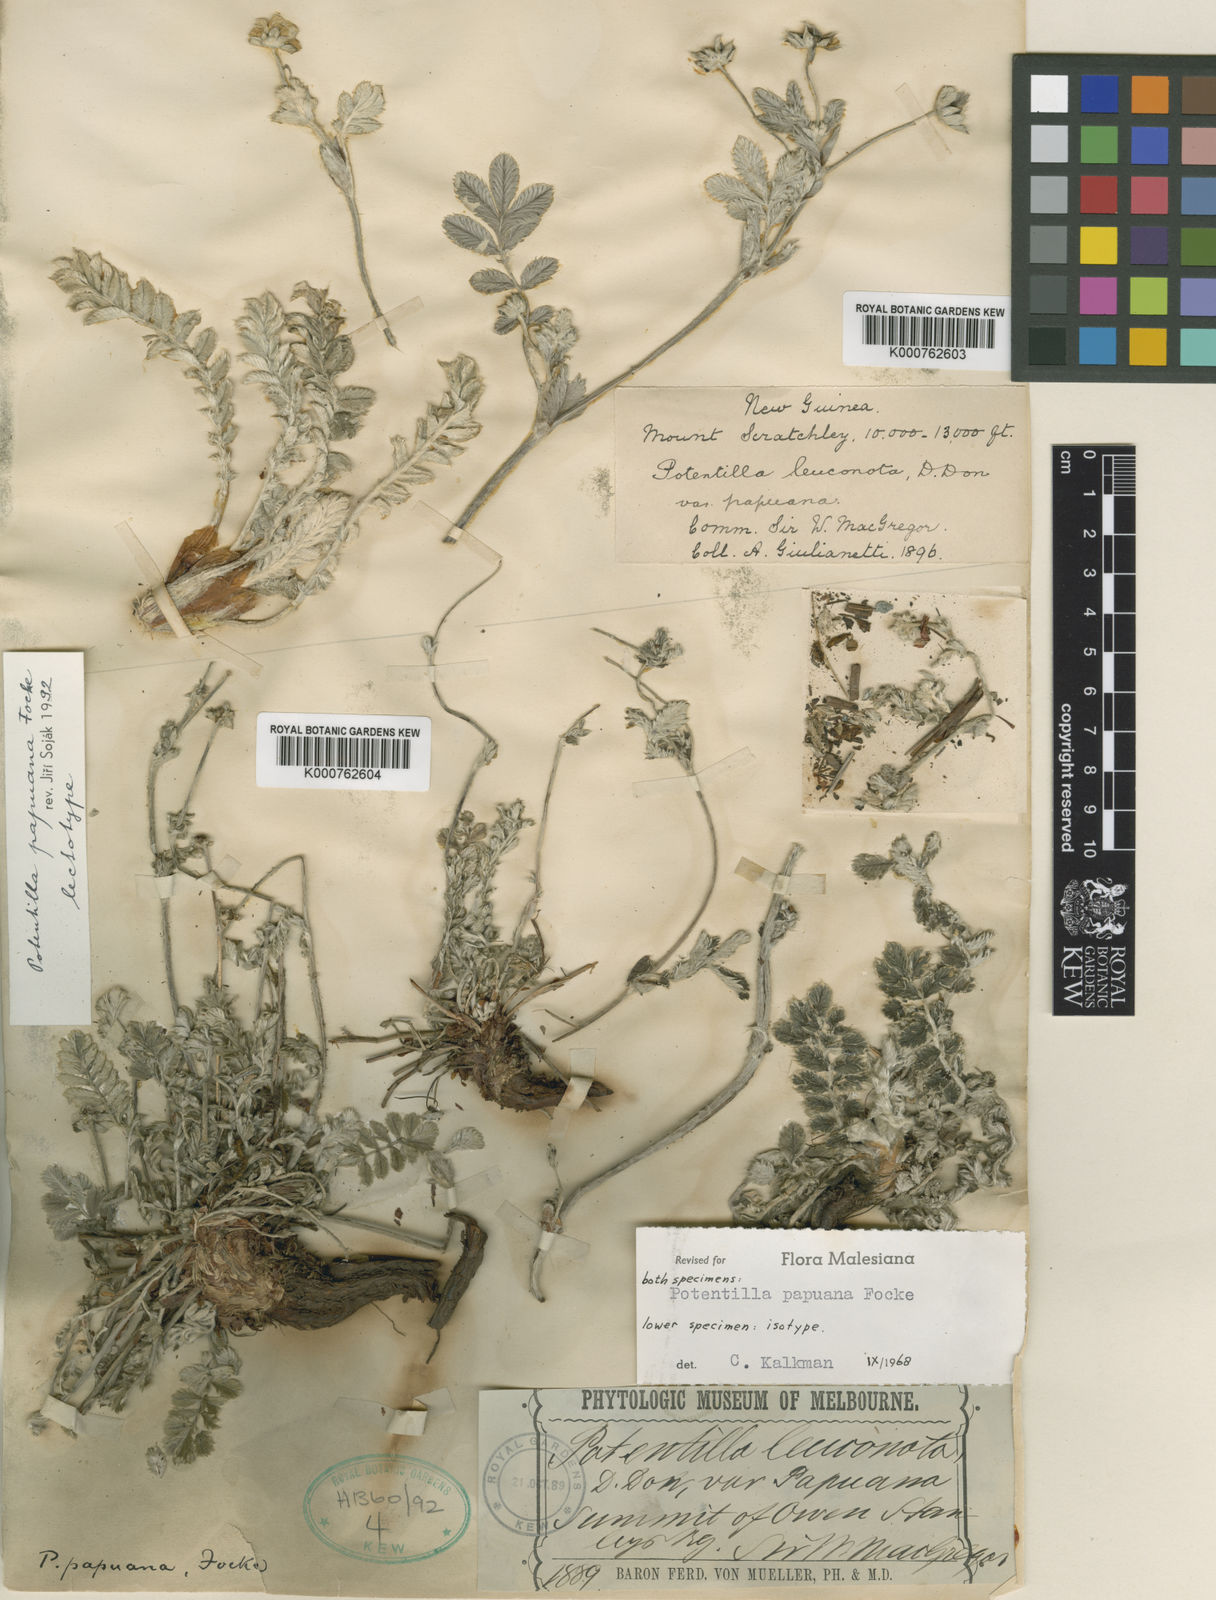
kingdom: Plantae
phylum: Tracheophyta
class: Magnoliopsida
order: Rosales
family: Rosaceae
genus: Argentina
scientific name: Argentina papuana
